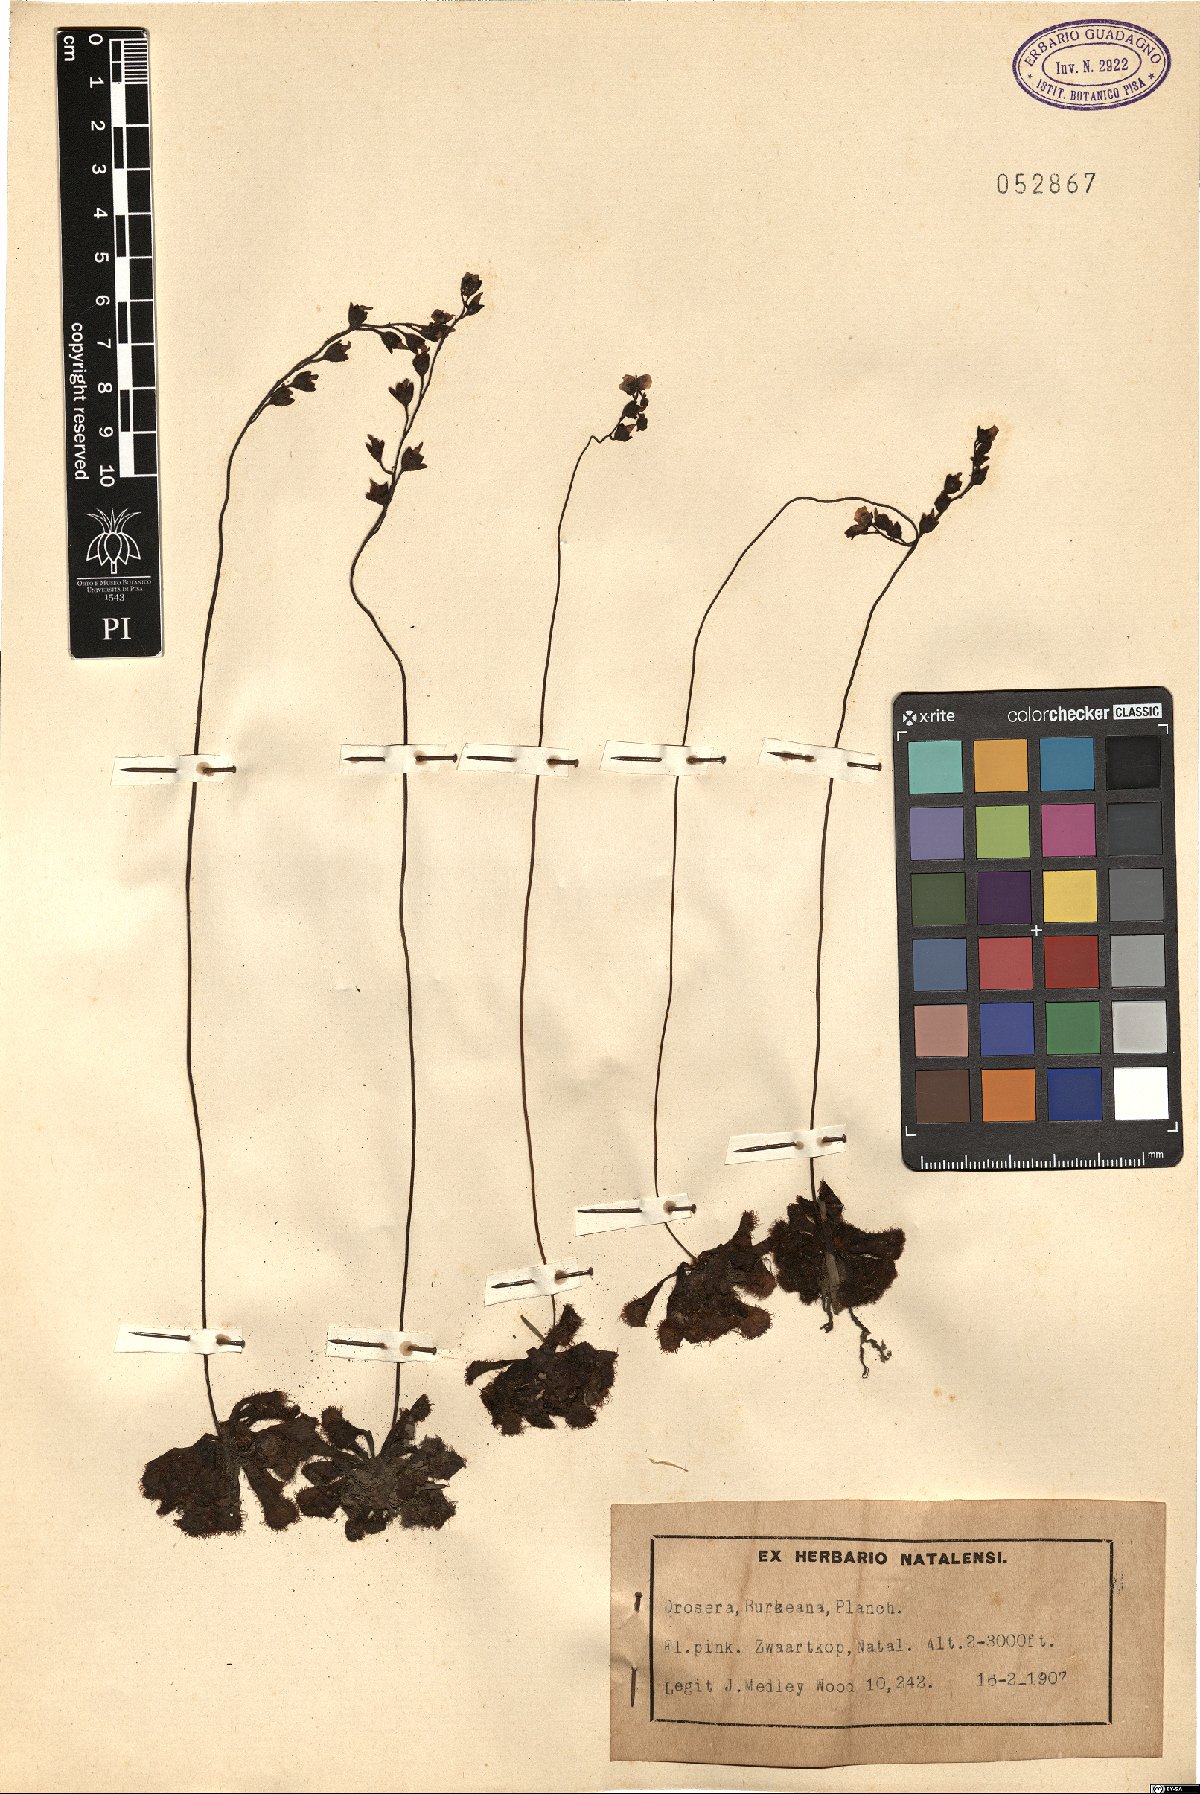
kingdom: Plantae
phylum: Tracheophyta
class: Magnoliopsida
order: Caryophyllales
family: Droseraceae
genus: Drosera
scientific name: Drosera burkeana
